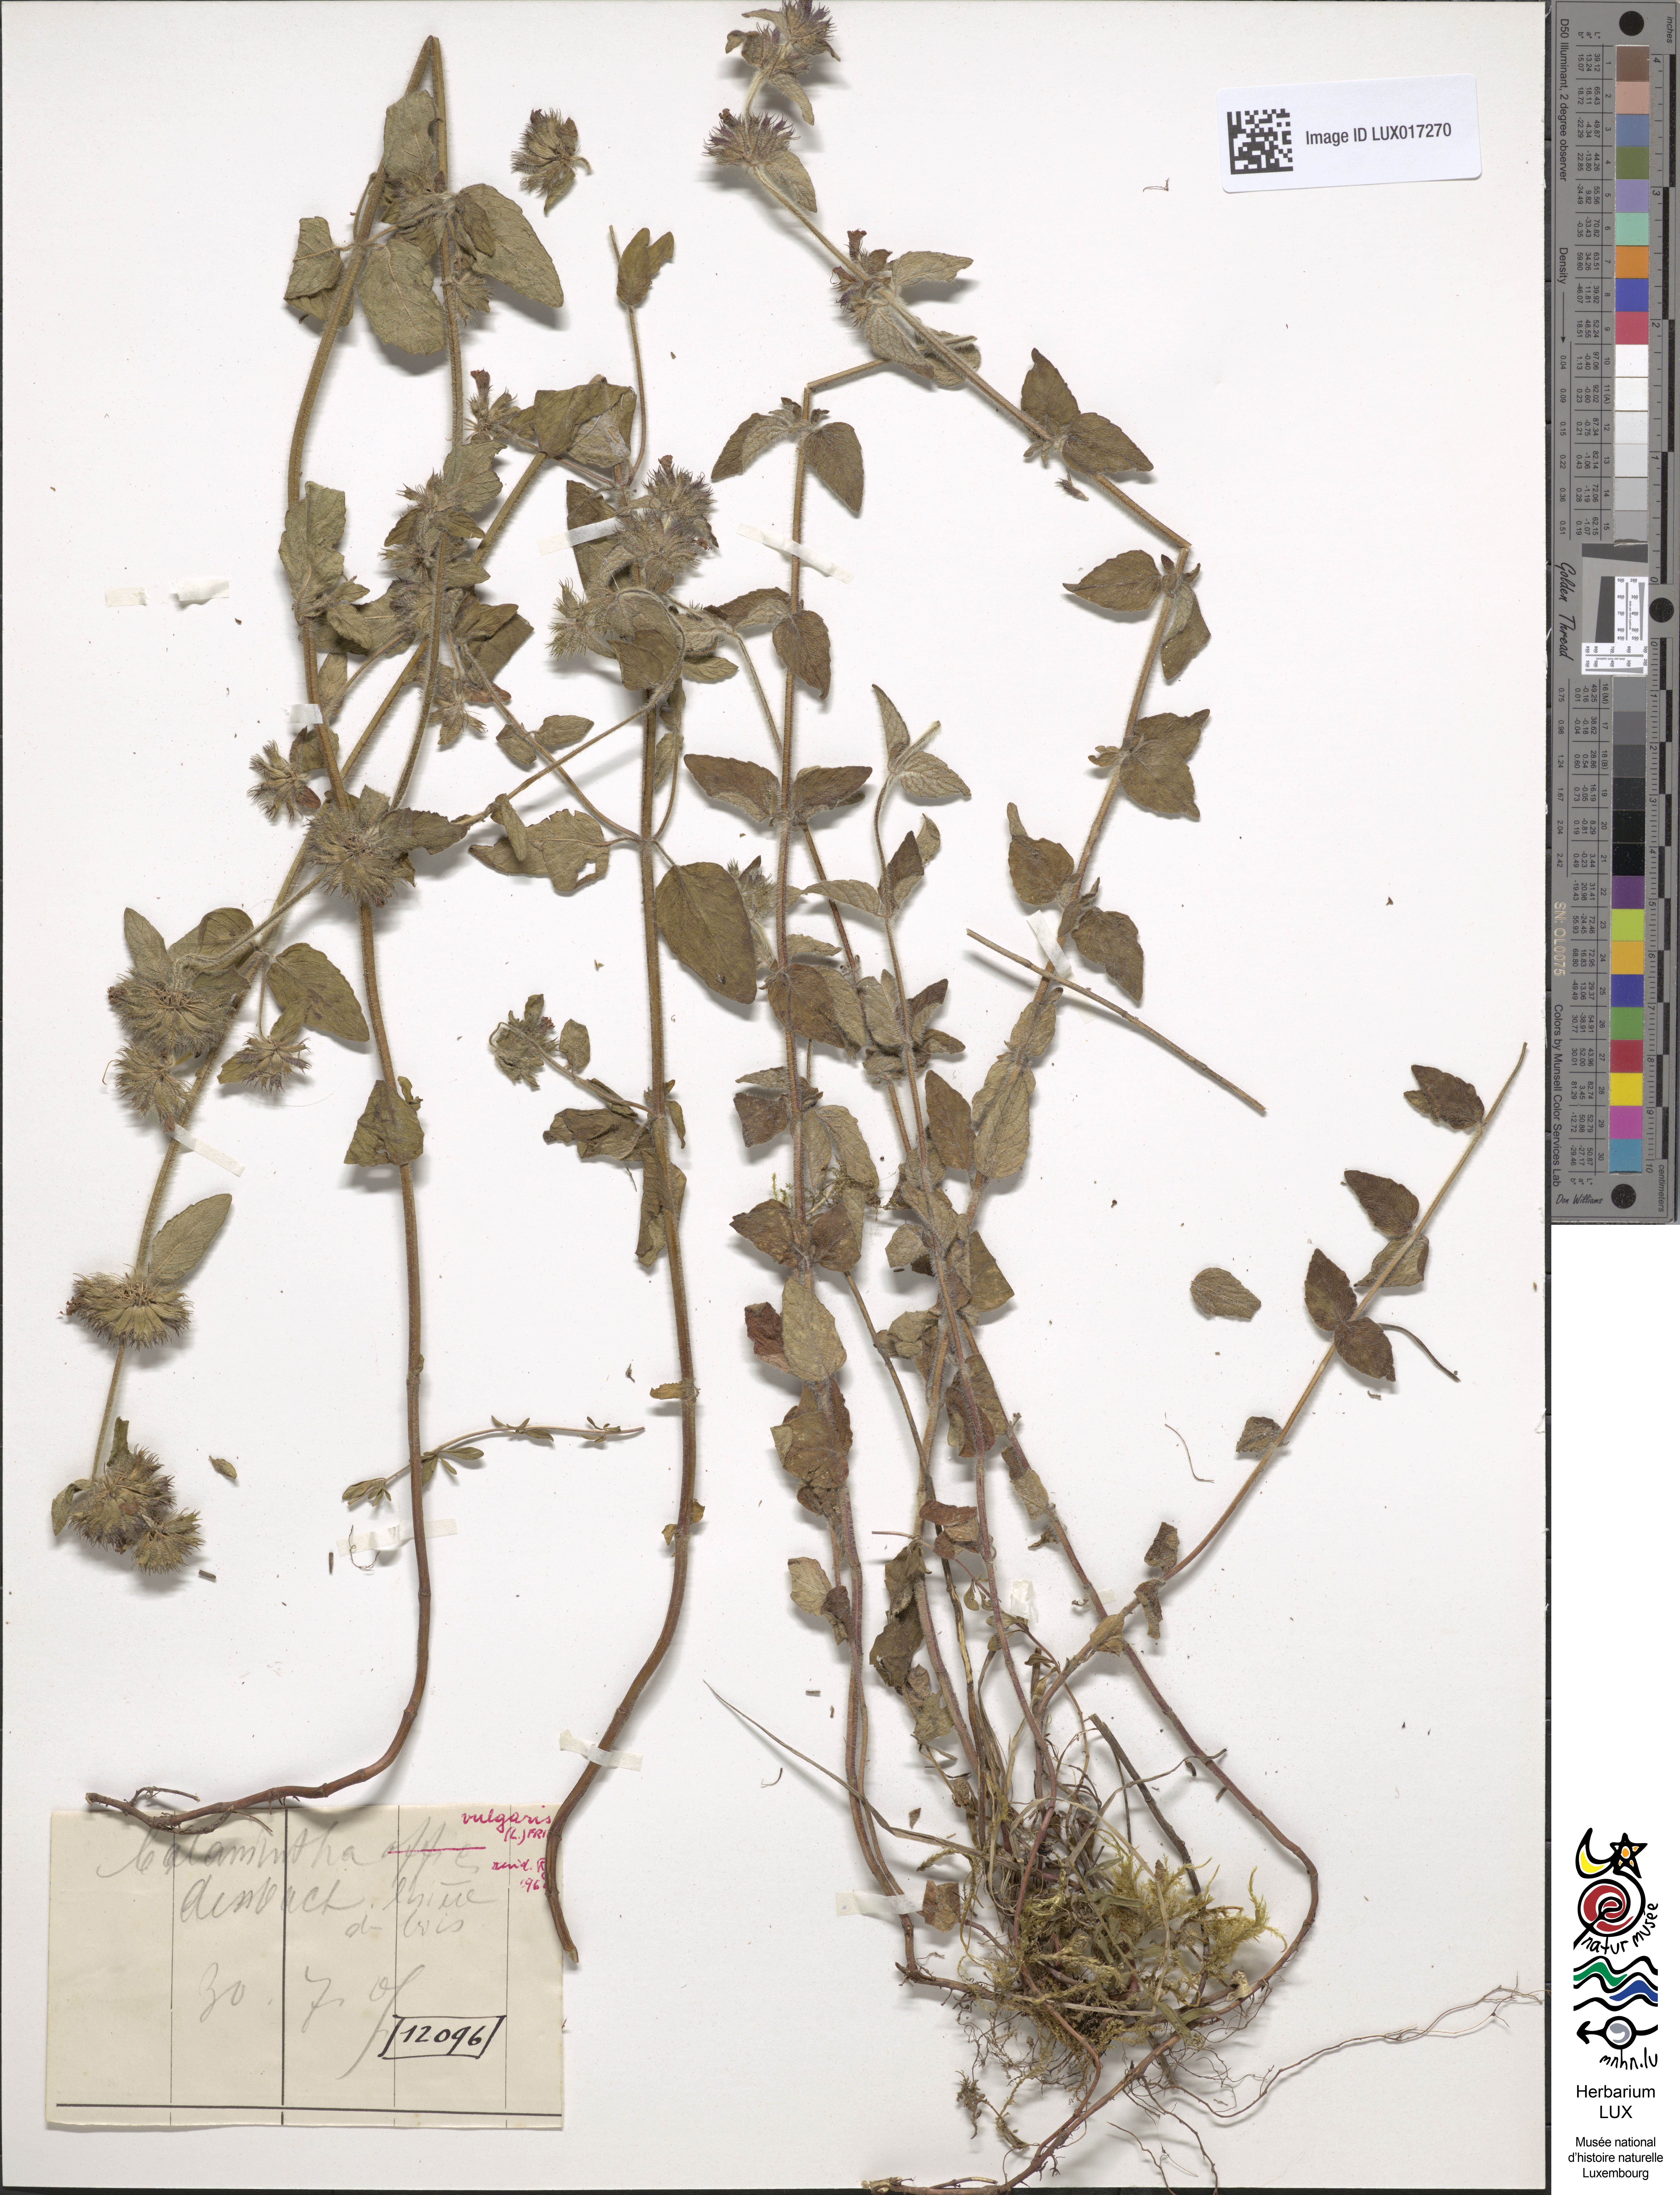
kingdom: Plantae
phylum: Tracheophyta
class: Magnoliopsida
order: Lamiales
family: Lamiaceae
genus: Clinopodium
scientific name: Clinopodium nepeta
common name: Lesser calamint
